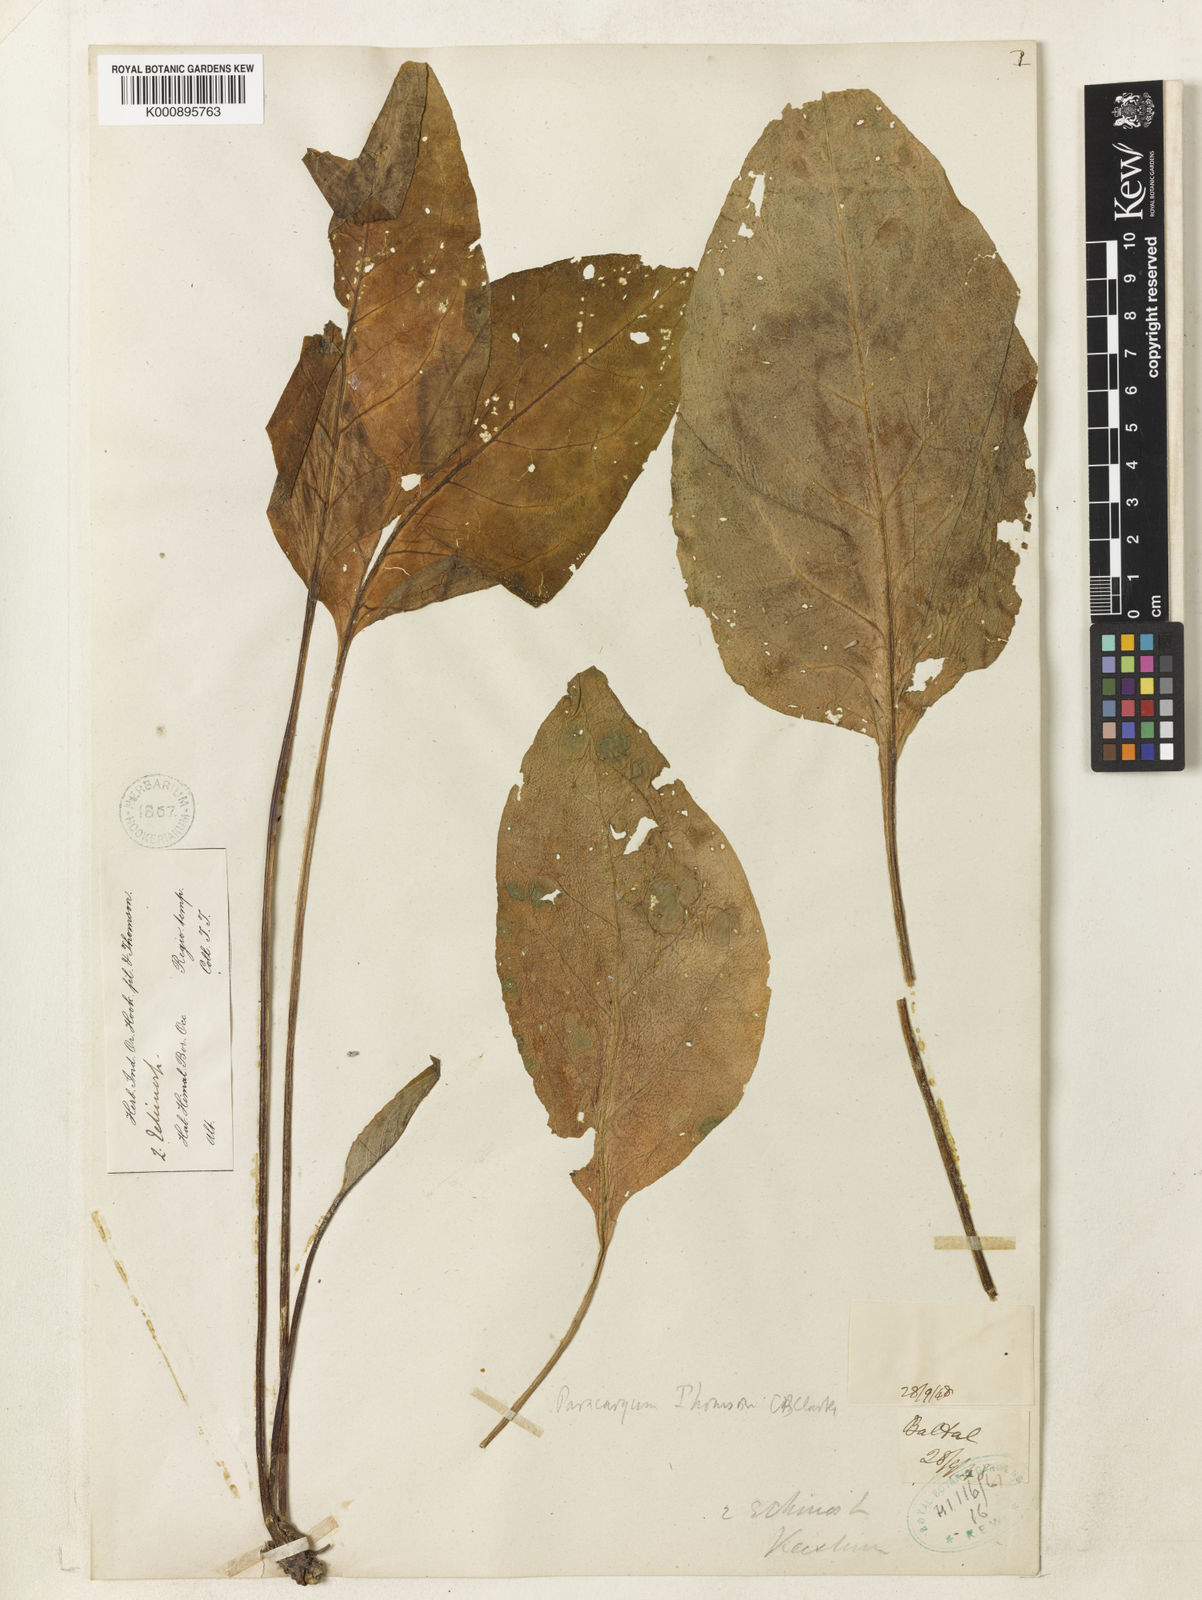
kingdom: Plantae
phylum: Tracheophyta
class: Magnoliopsida
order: Boraginales
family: Boraginaceae
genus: Paracaryum
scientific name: Paracaryum thomsonii
